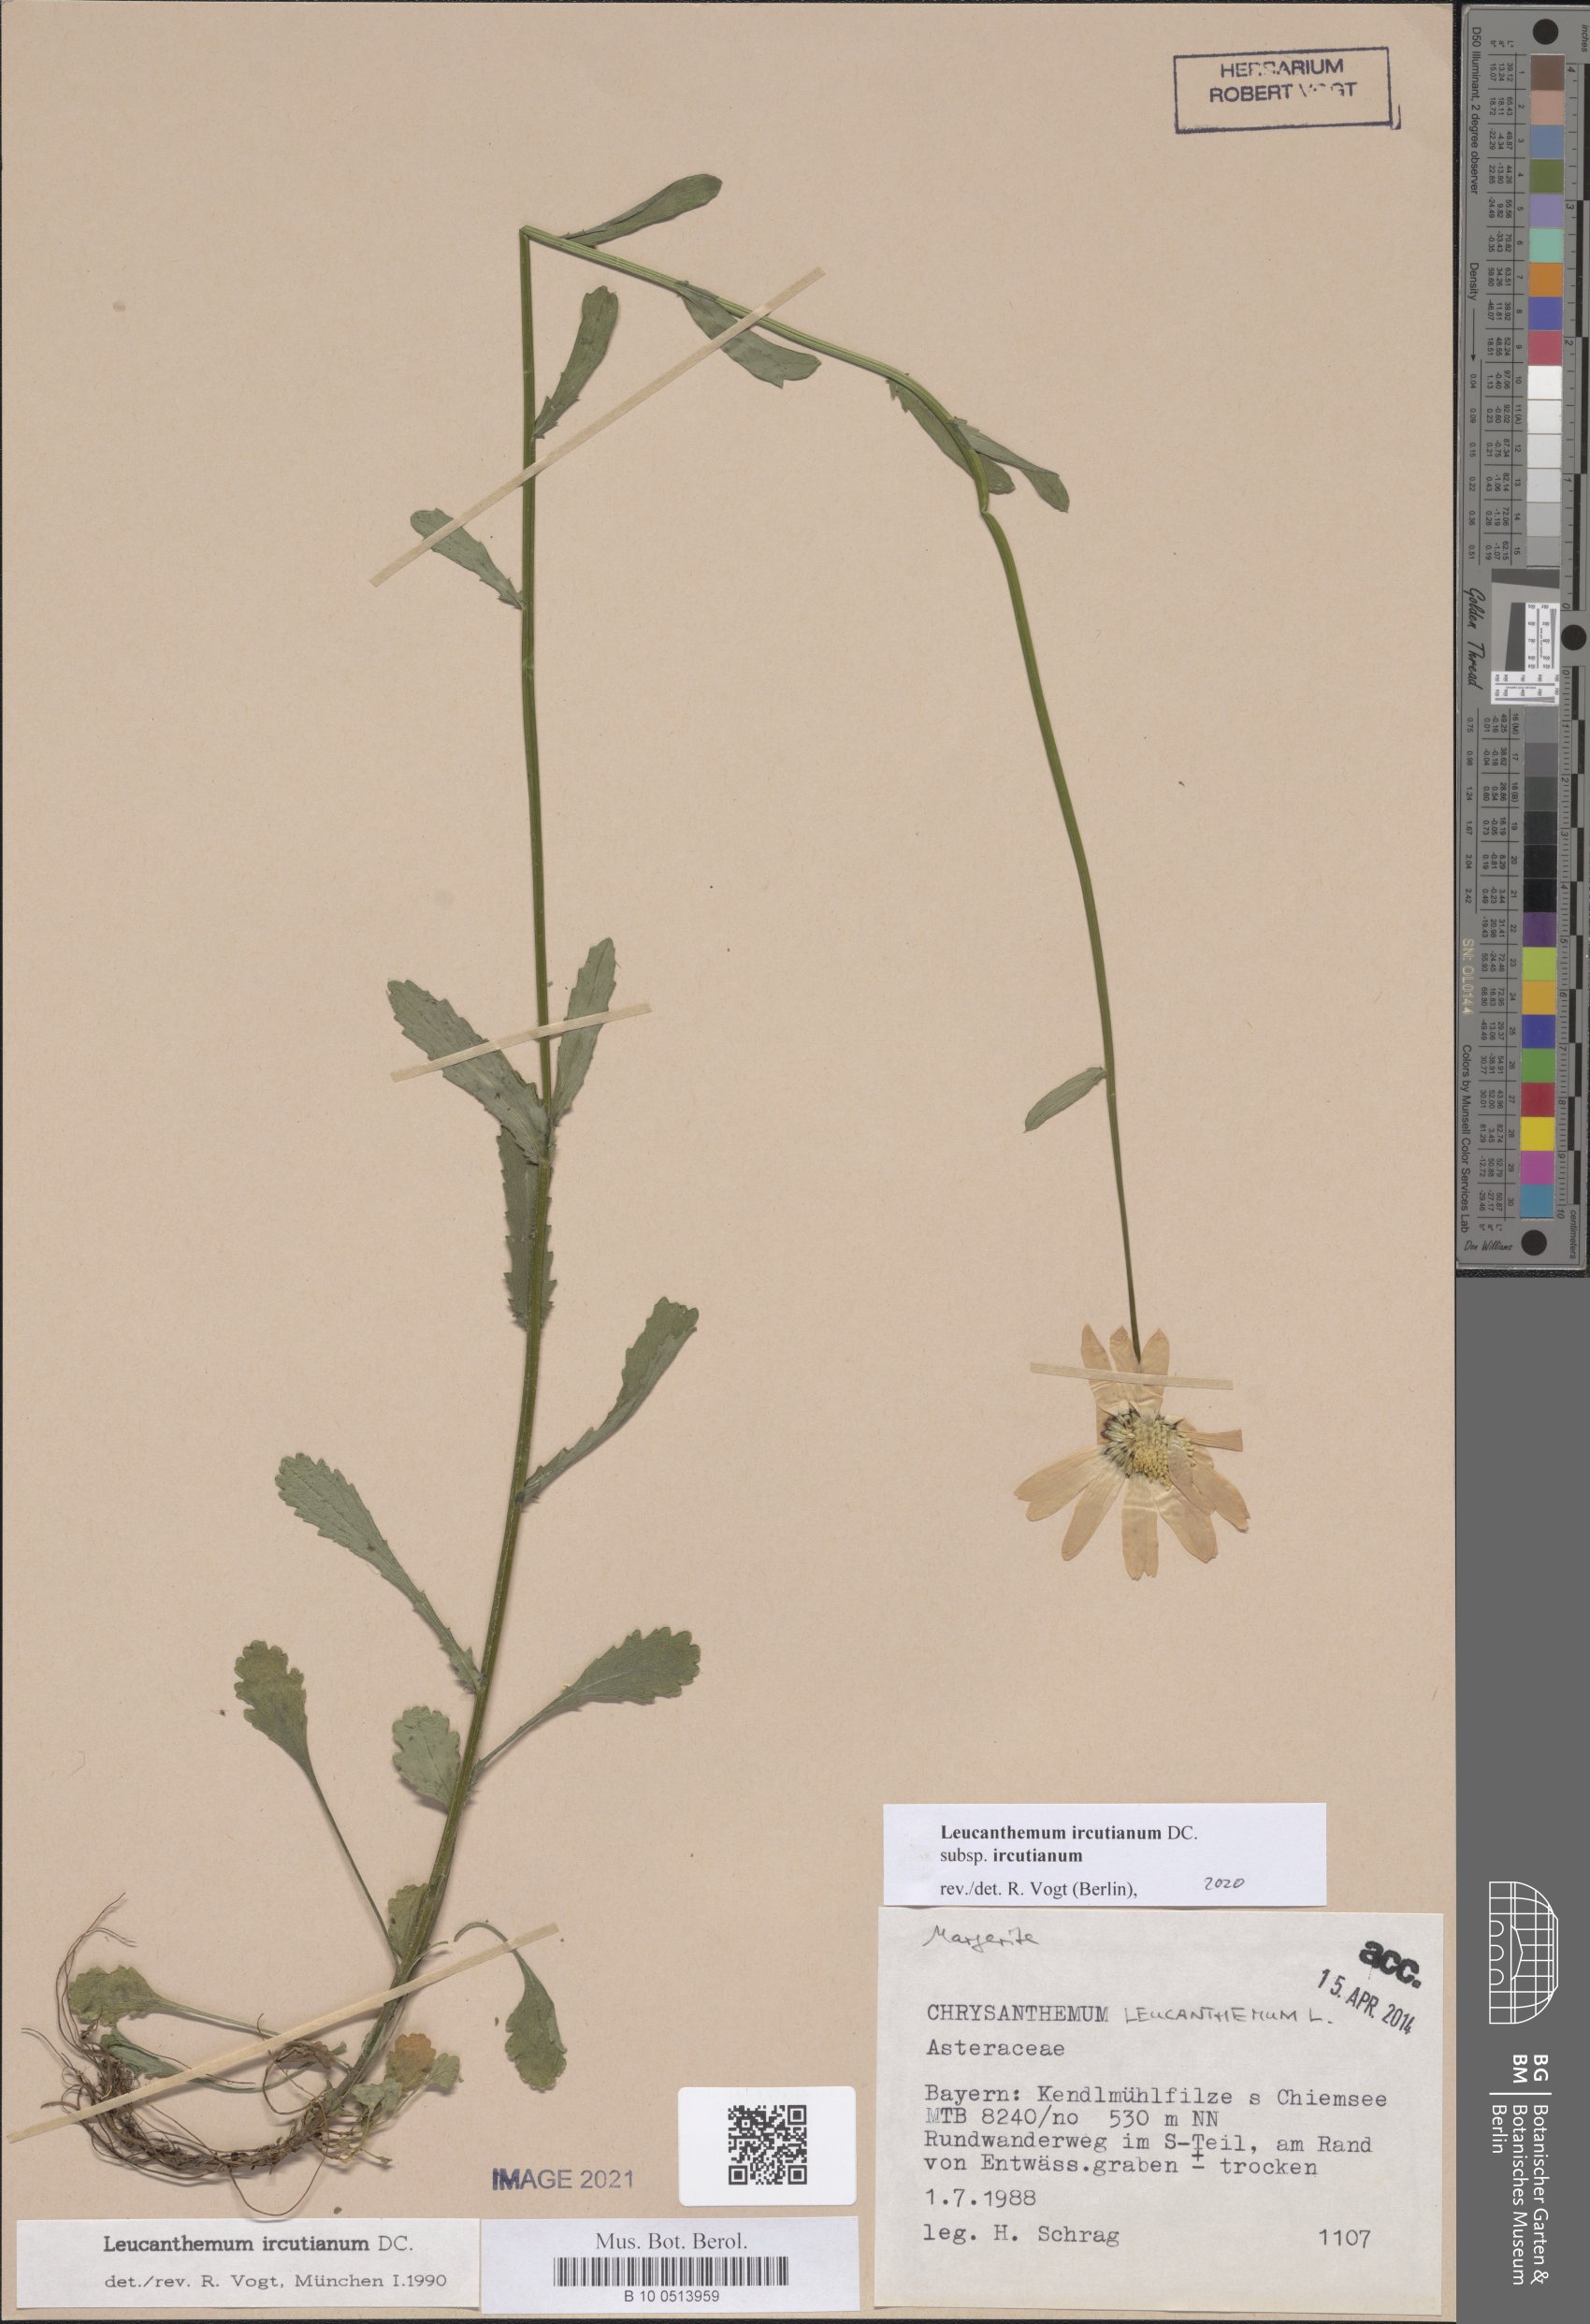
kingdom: Plantae
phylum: Tracheophyta
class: Magnoliopsida
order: Asterales
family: Asteraceae
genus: Leucanthemum
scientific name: Leucanthemum ircutianum
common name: Daisy
